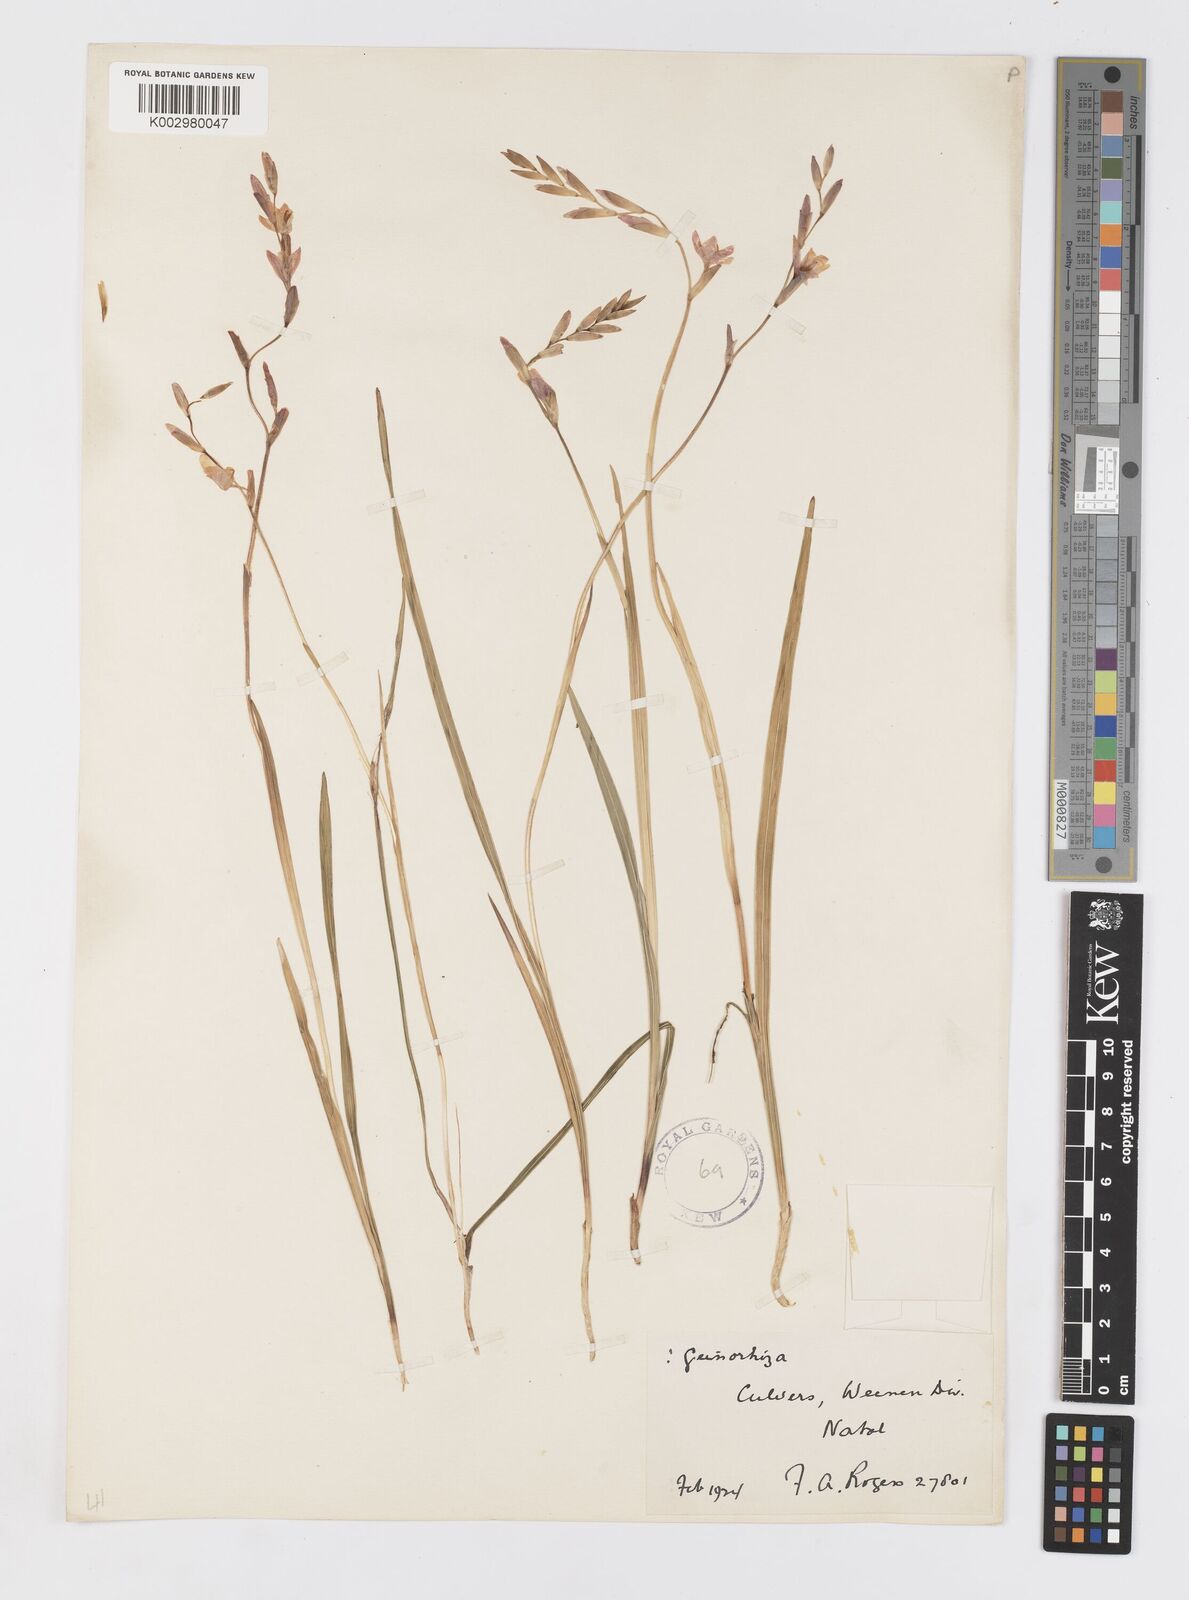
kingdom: Plantae
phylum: Tracheophyta
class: Liliopsida
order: Asparagales
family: Iridaceae
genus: Hesperantha
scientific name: Hesperantha baurii
